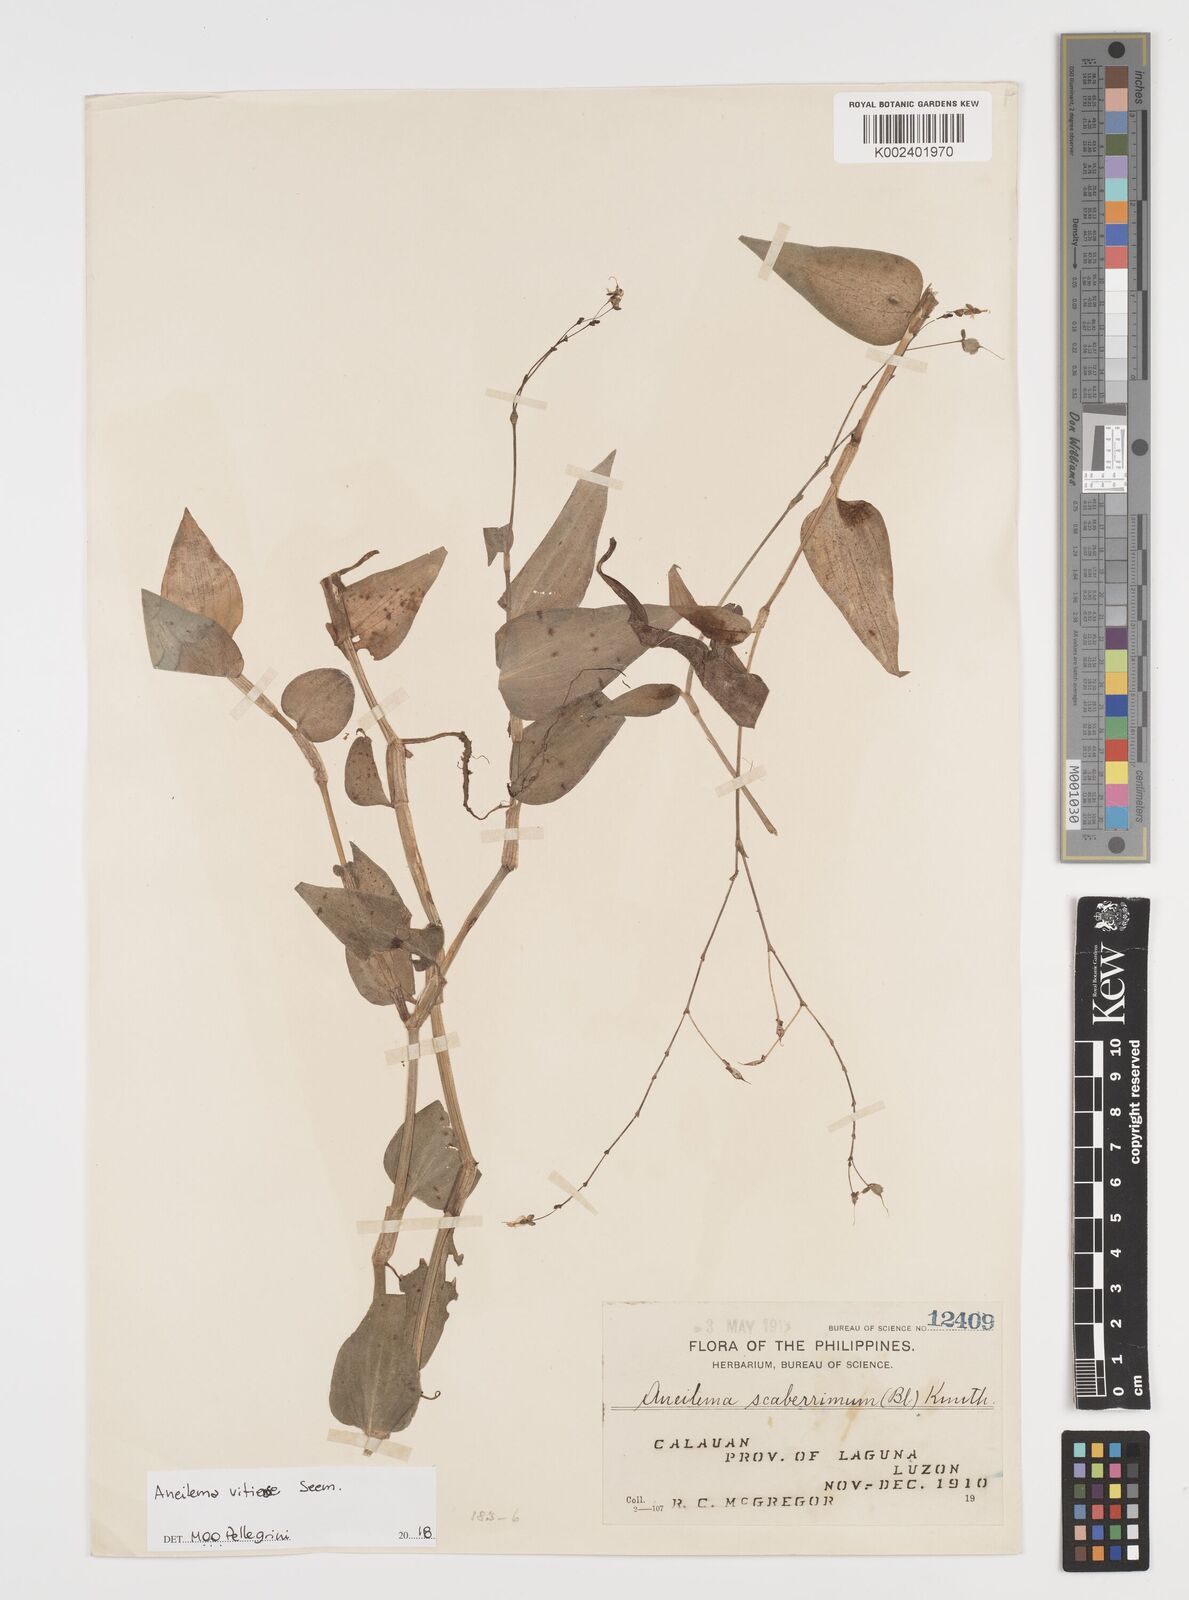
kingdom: Plantae
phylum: Tracheophyta
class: Liliopsida
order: Commelinales
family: Commelinaceae
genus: Rhopalephora
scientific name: Rhopalephora vitiensis
